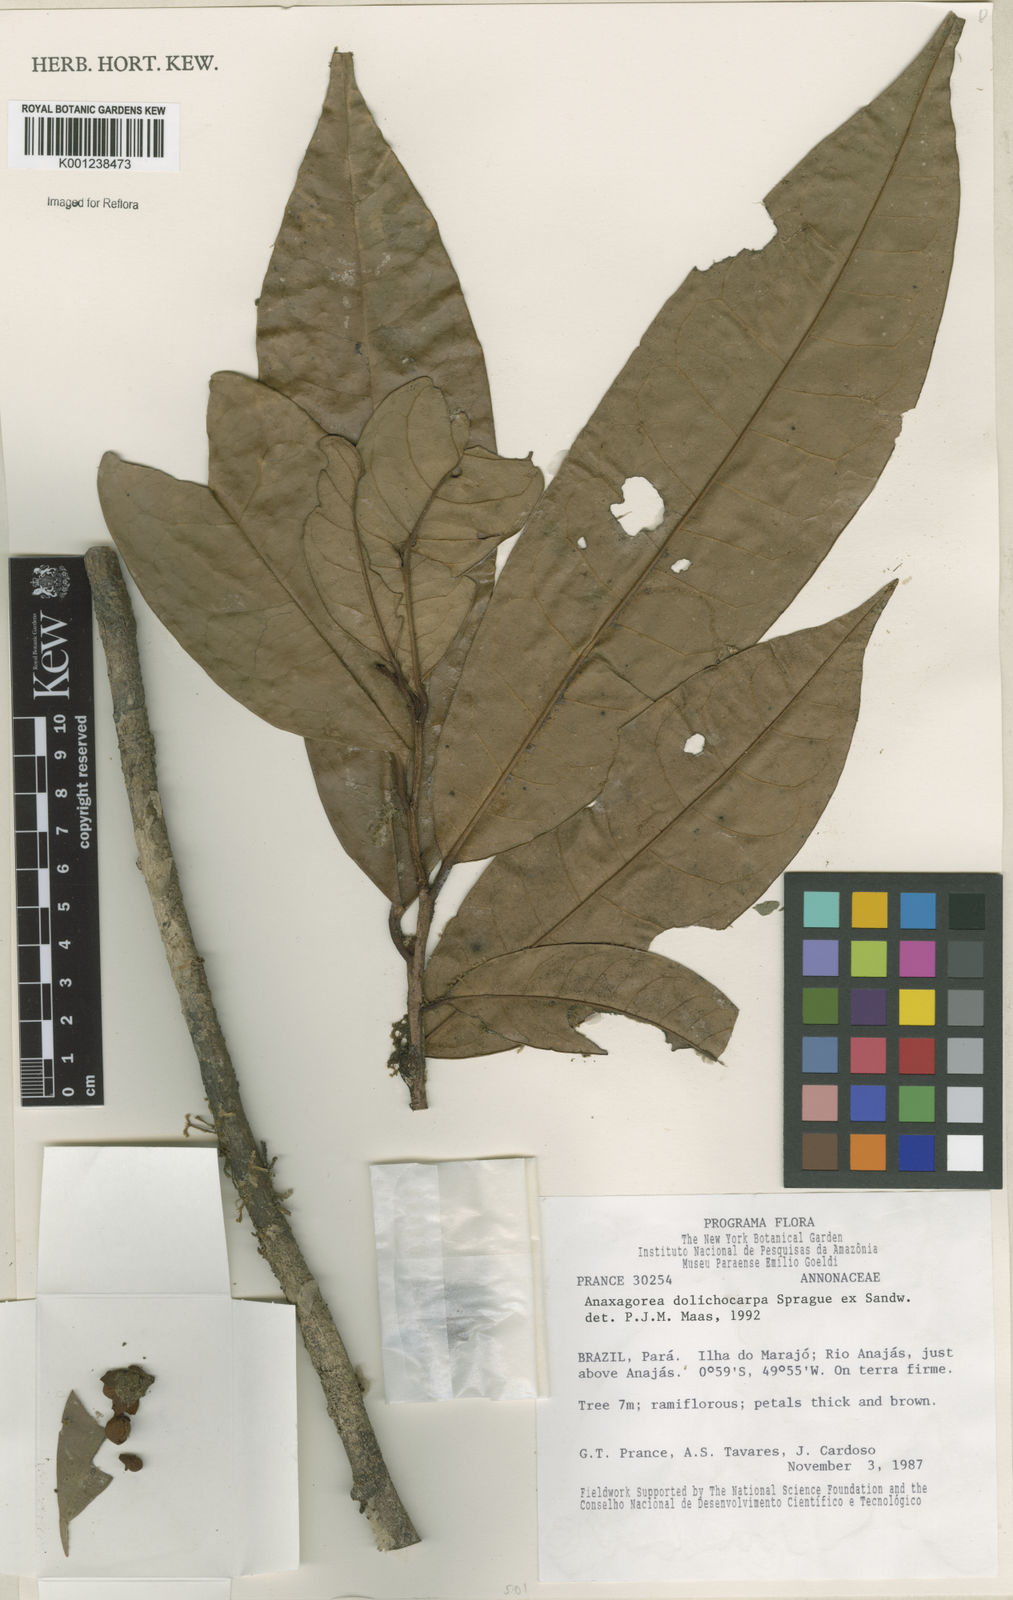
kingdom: Plantae
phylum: Tracheophyta
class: Magnoliopsida
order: Magnoliales
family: Annonaceae
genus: Anaxagorea
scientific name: Anaxagorea dolichocarpa
